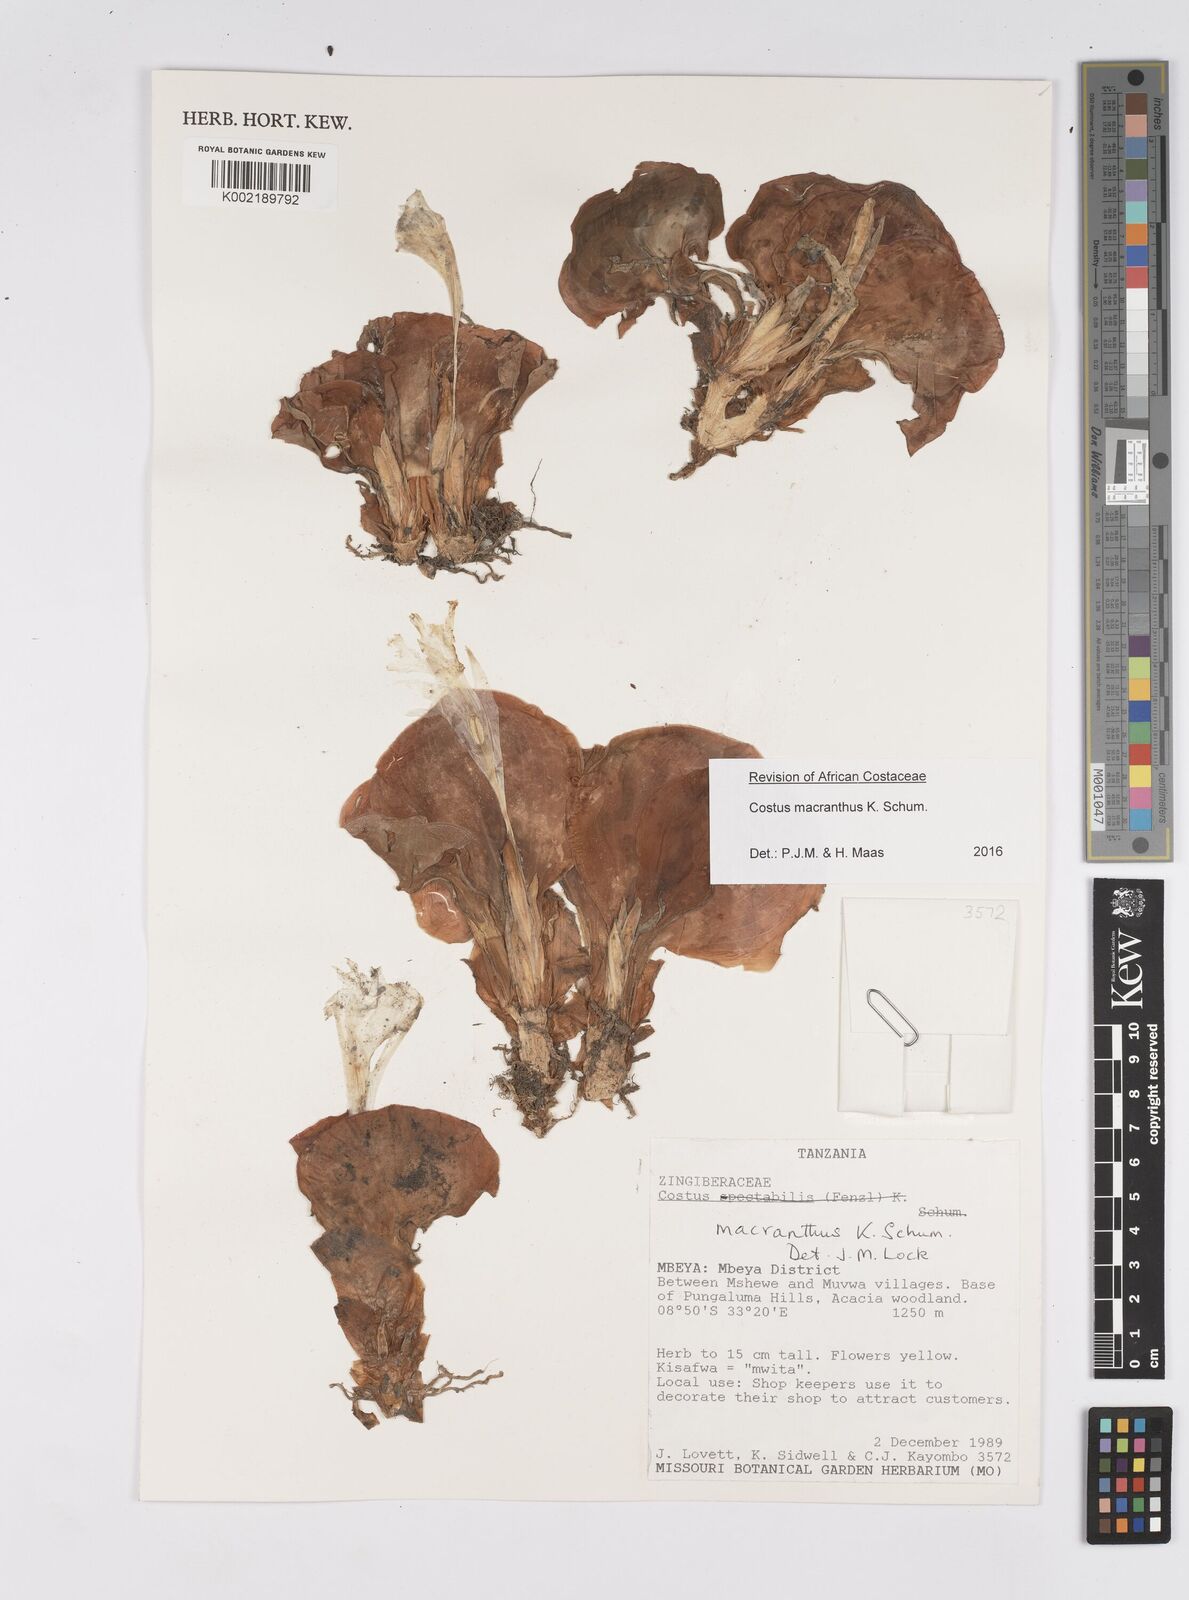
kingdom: Plantae
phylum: Tracheophyta
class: Liliopsida
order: Zingiberales
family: Costaceae
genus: Costus
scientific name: Costus macranthus
